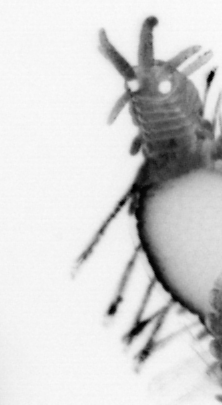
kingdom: Animalia
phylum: Annelida
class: Polychaeta
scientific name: Polychaeta
